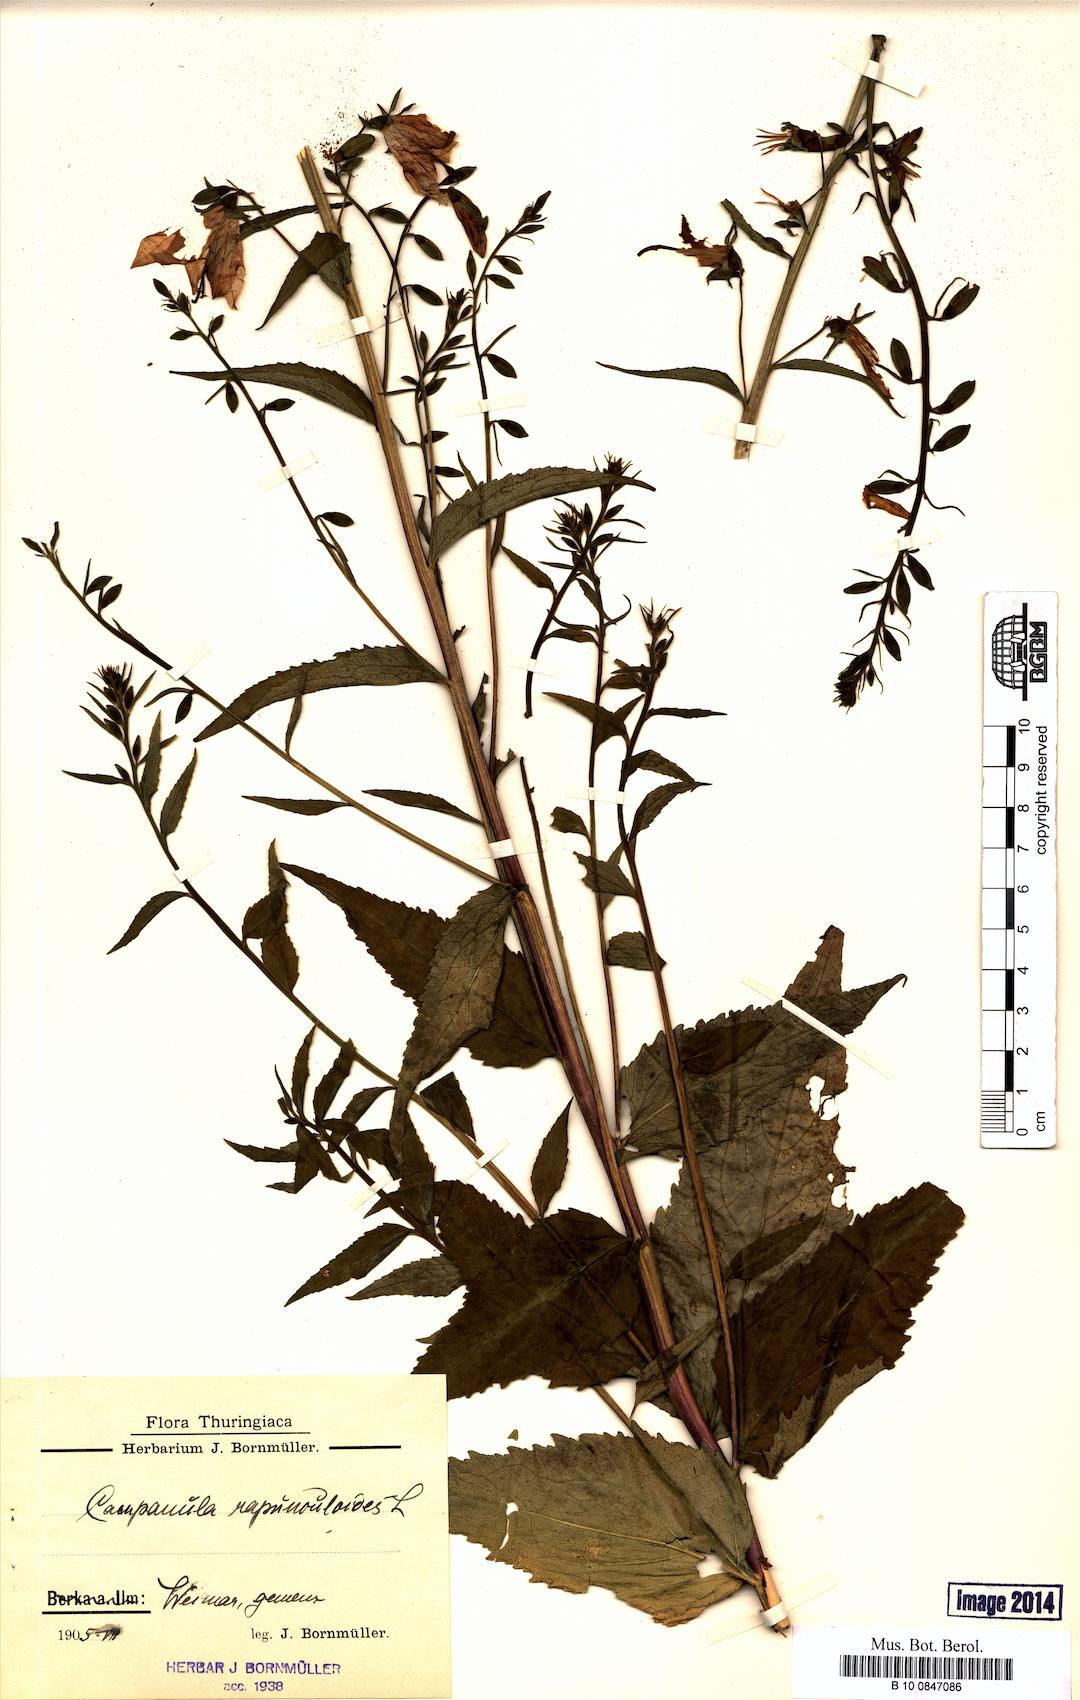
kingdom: Plantae
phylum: Tracheophyta
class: Magnoliopsida
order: Asterales
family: Campanulaceae
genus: Campanula
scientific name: Campanula rapunculoides
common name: Creeping bellflower
